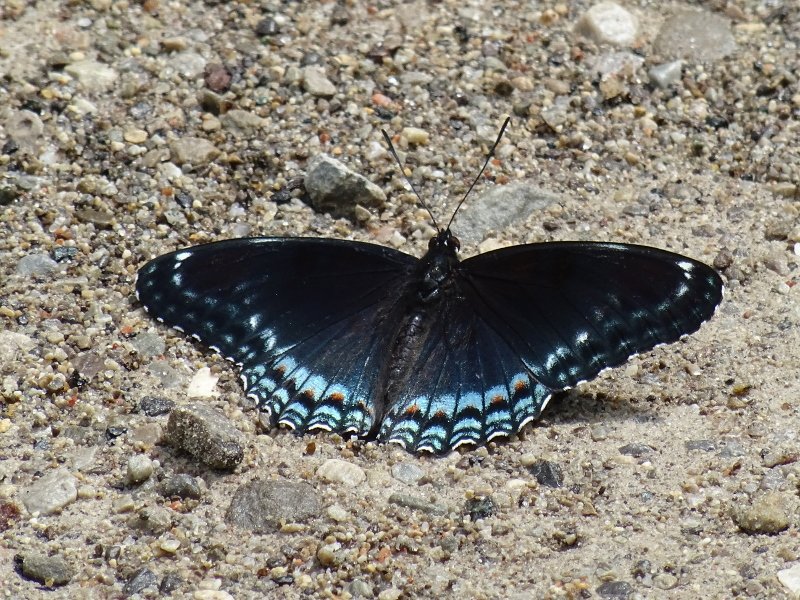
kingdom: Animalia
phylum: Arthropoda
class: Insecta
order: Lepidoptera
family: Nymphalidae
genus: Limenitis
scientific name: Limenitis astyanax
